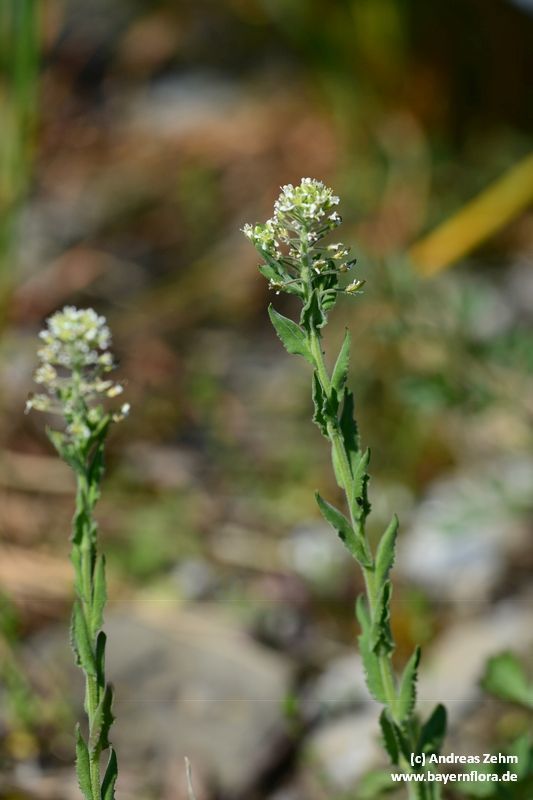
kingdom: Plantae
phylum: Tracheophyta
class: Magnoliopsida
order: Brassicales
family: Brassicaceae
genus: Lepidium
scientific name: Lepidium campestre
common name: Field pepperwort
